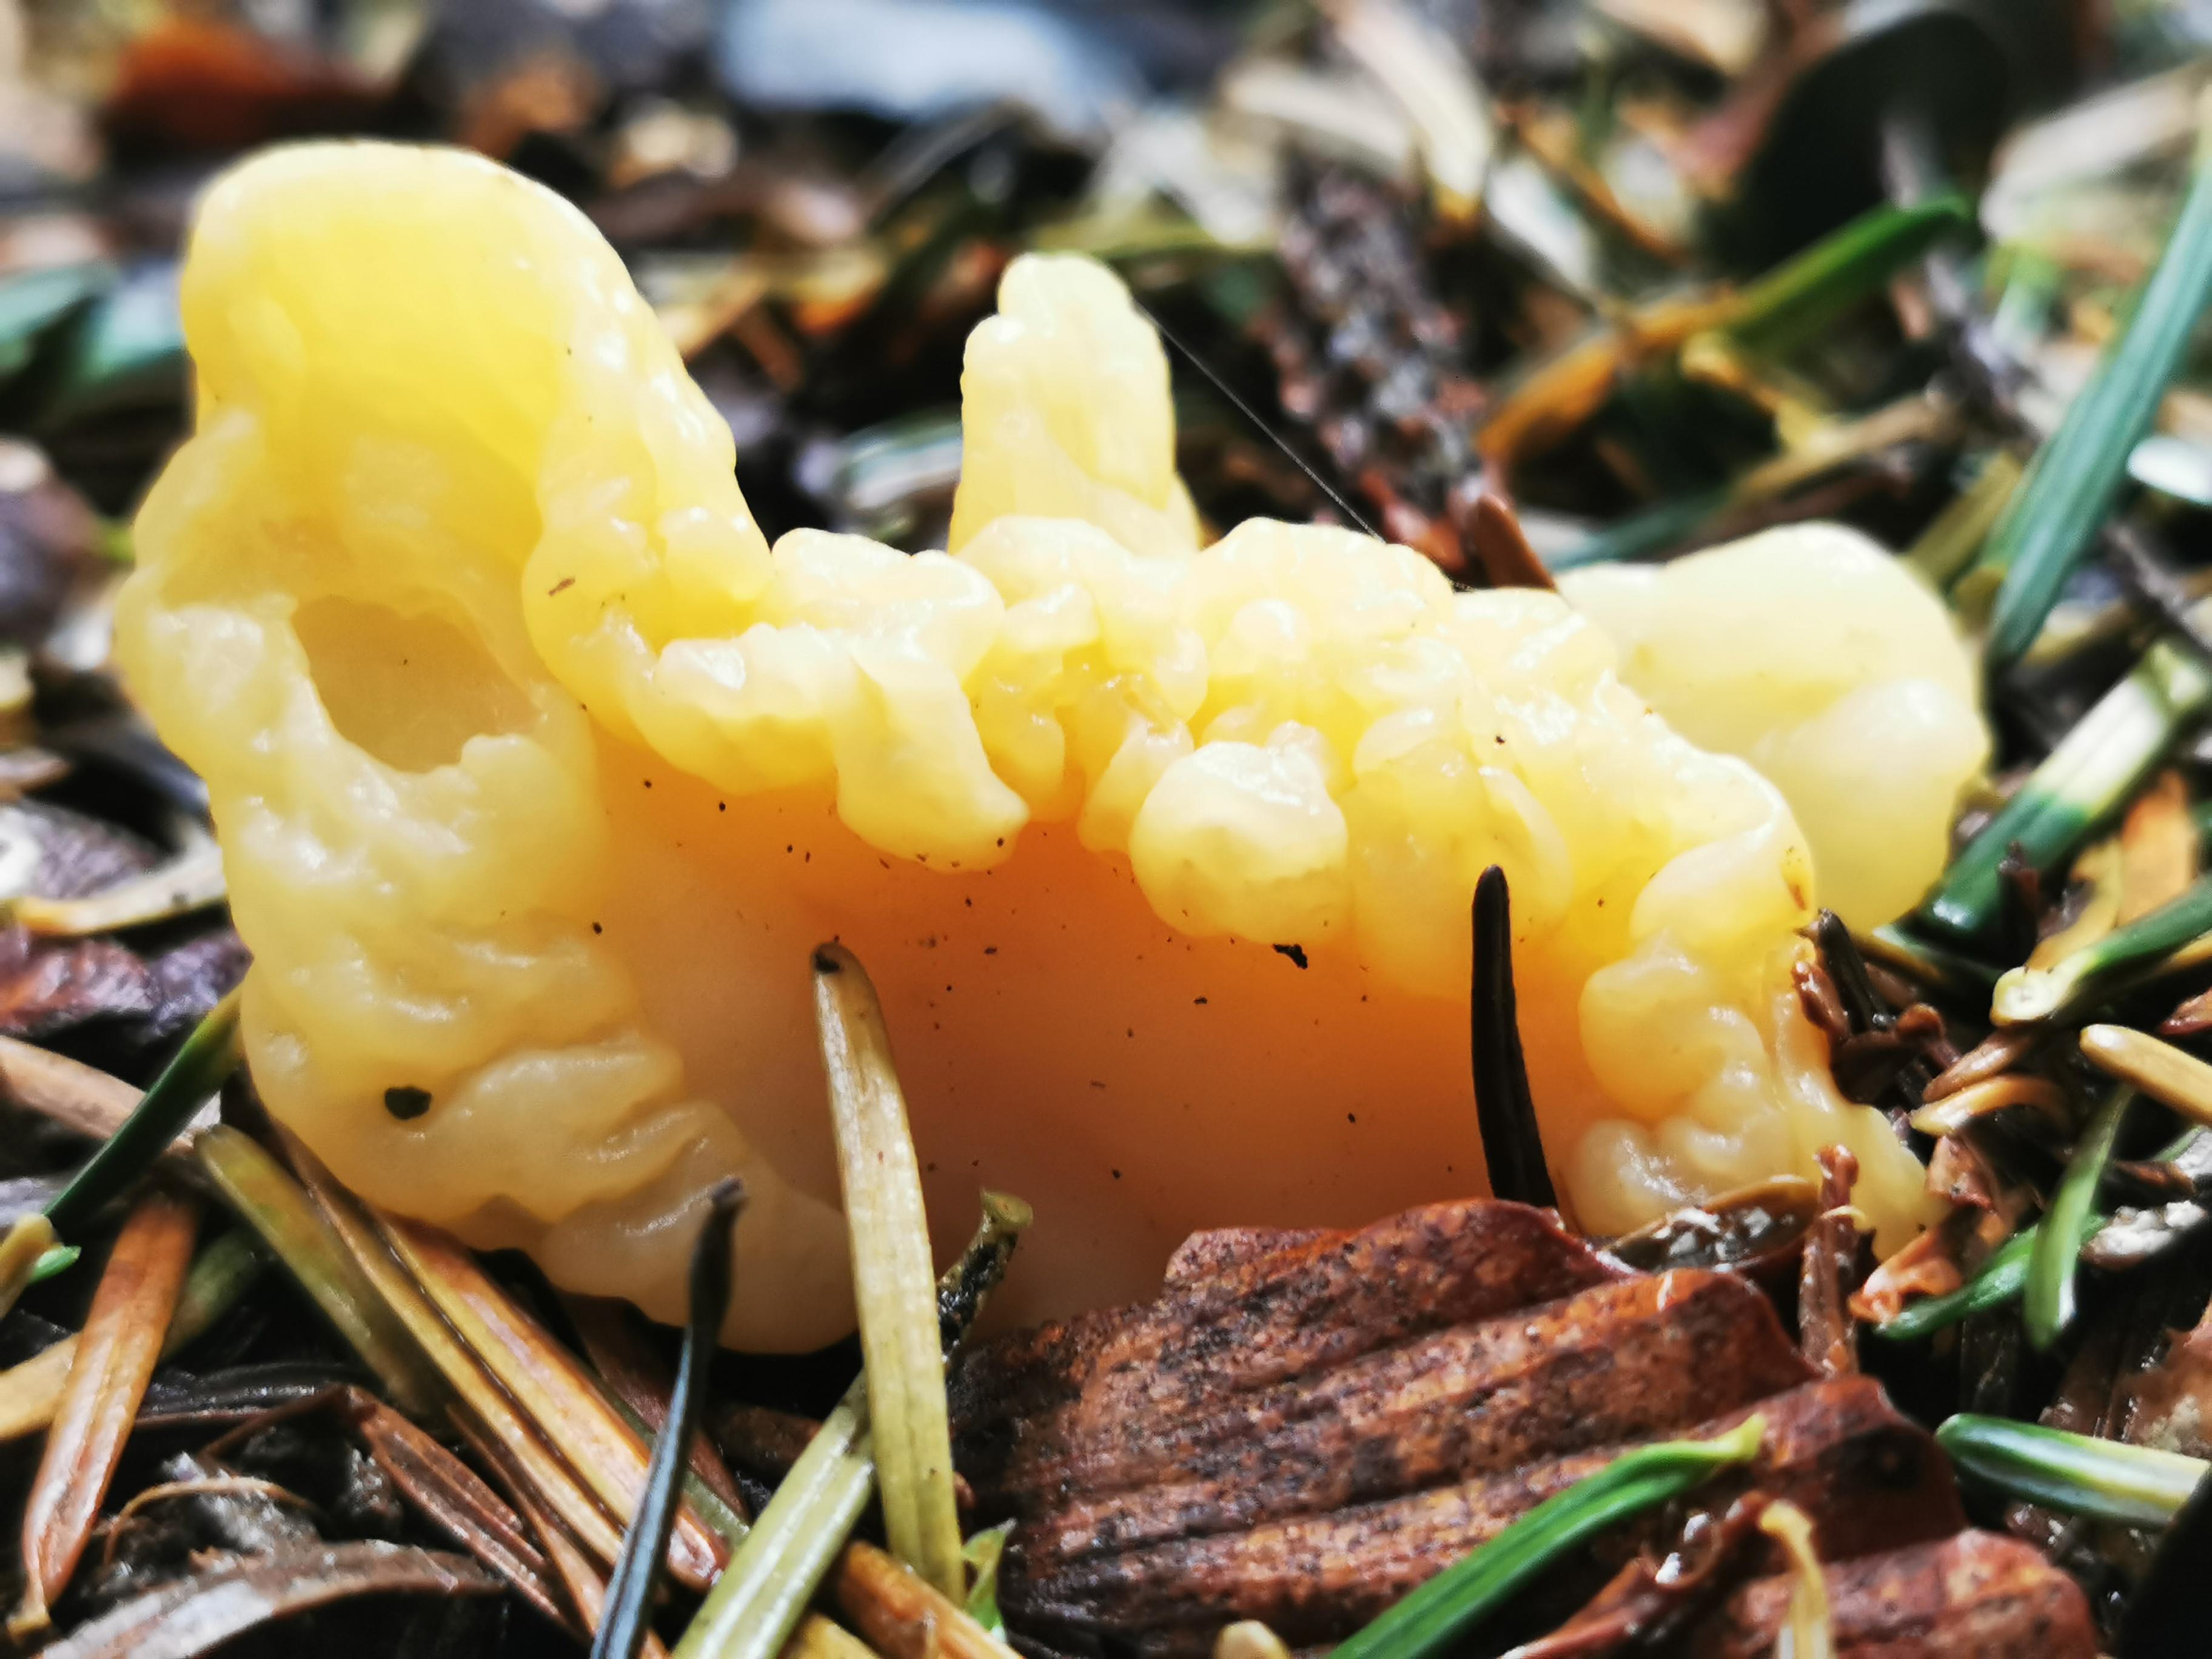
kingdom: Fungi
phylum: Ascomycota
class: Leotiomycetes
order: Rhytismatales
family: Cudoniaceae
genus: Spathularia
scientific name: Spathularia flavida
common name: gul spatelsvamp
